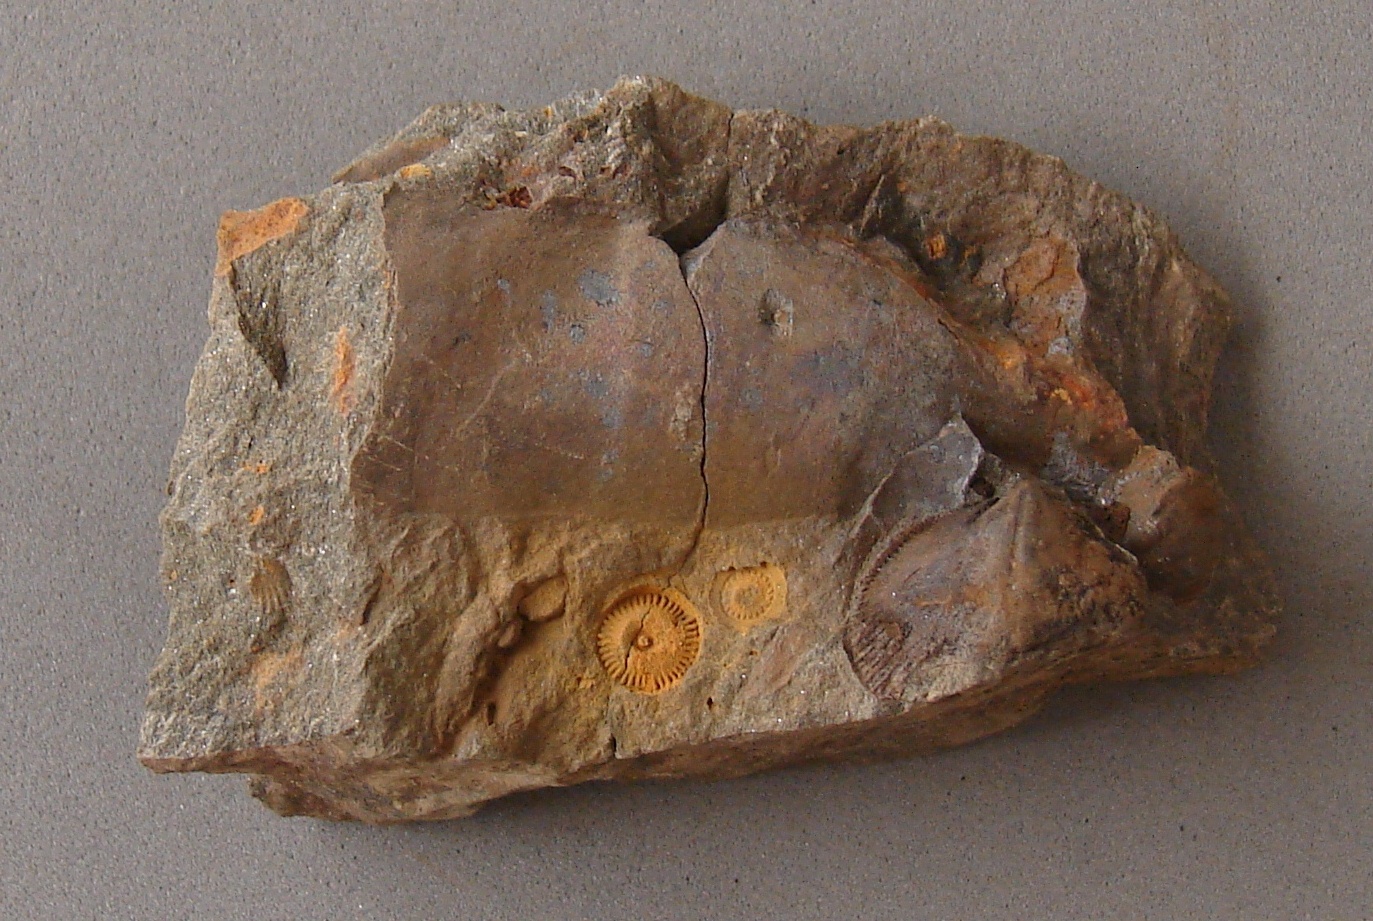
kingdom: Animalia
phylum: Echinodermata
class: Crinoidea
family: Melocrinitidae
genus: Ctenocrinus
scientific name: Ctenocrinus
